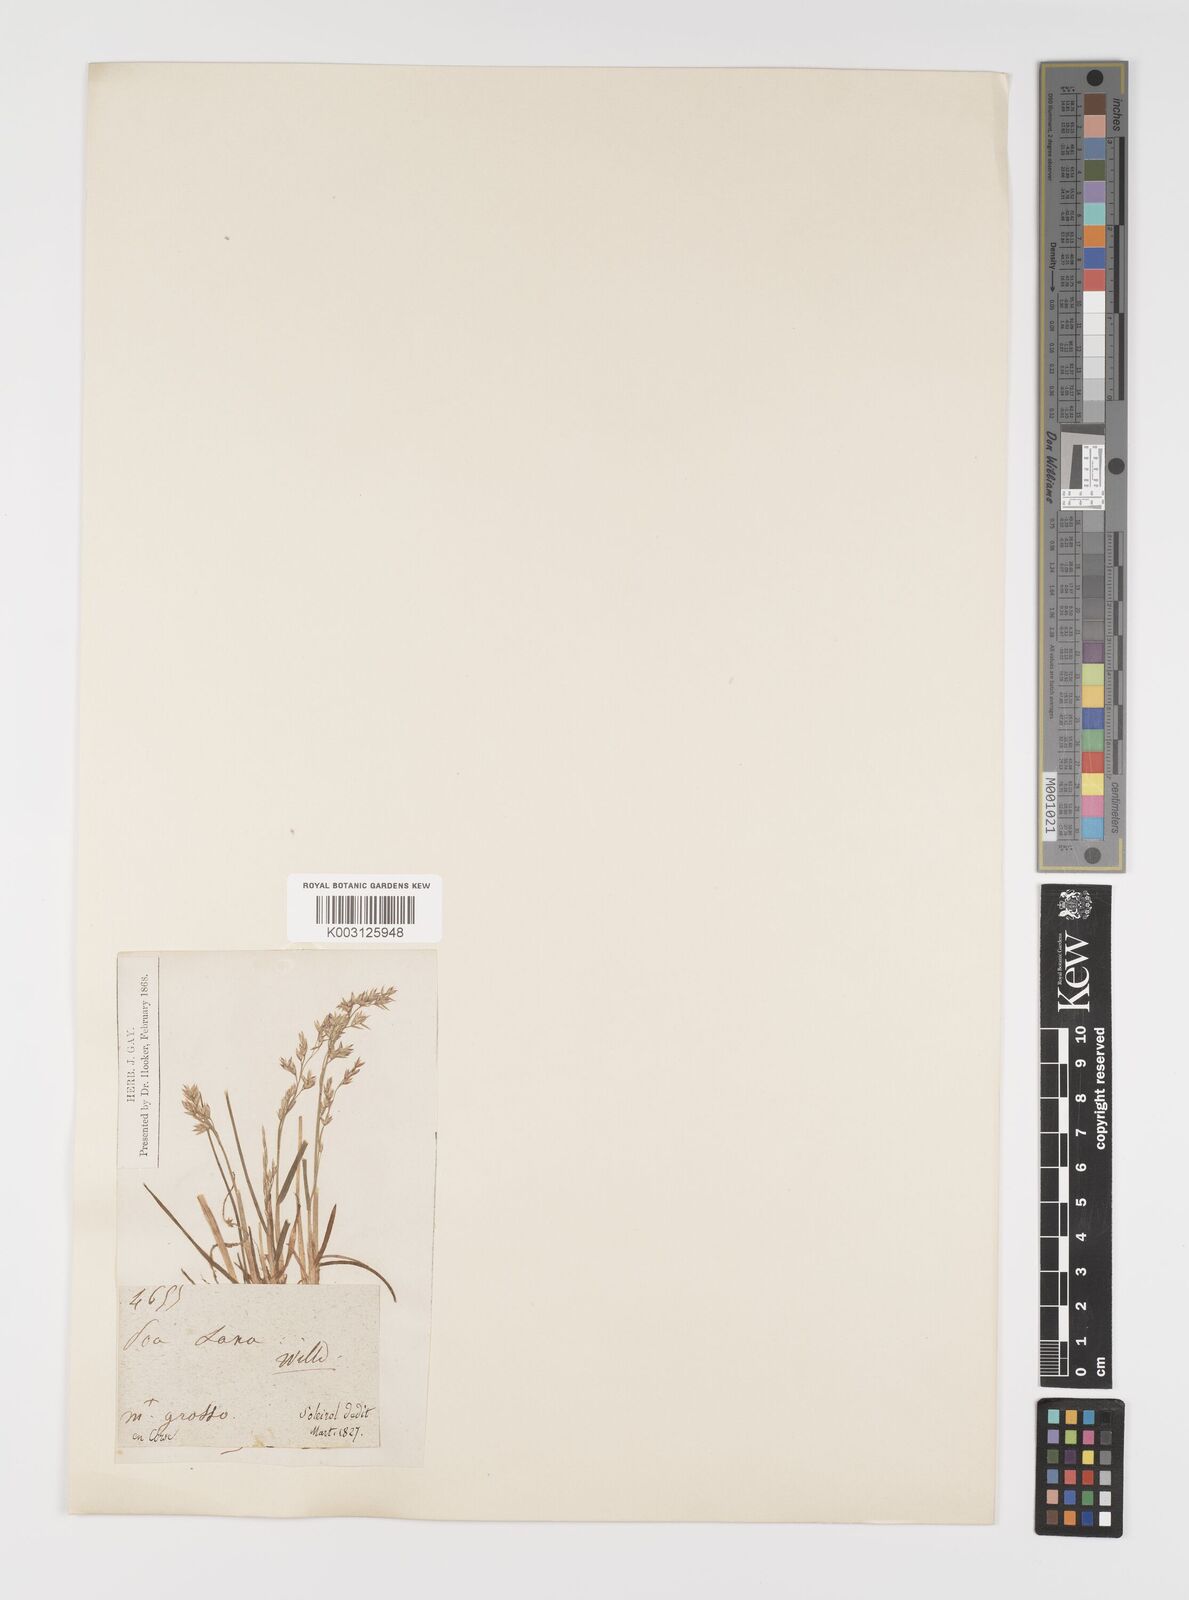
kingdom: Plantae
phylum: Tracheophyta
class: Liliopsida
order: Poales
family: Poaceae
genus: Poa
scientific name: Poa laxa
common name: Lax bluegrass
